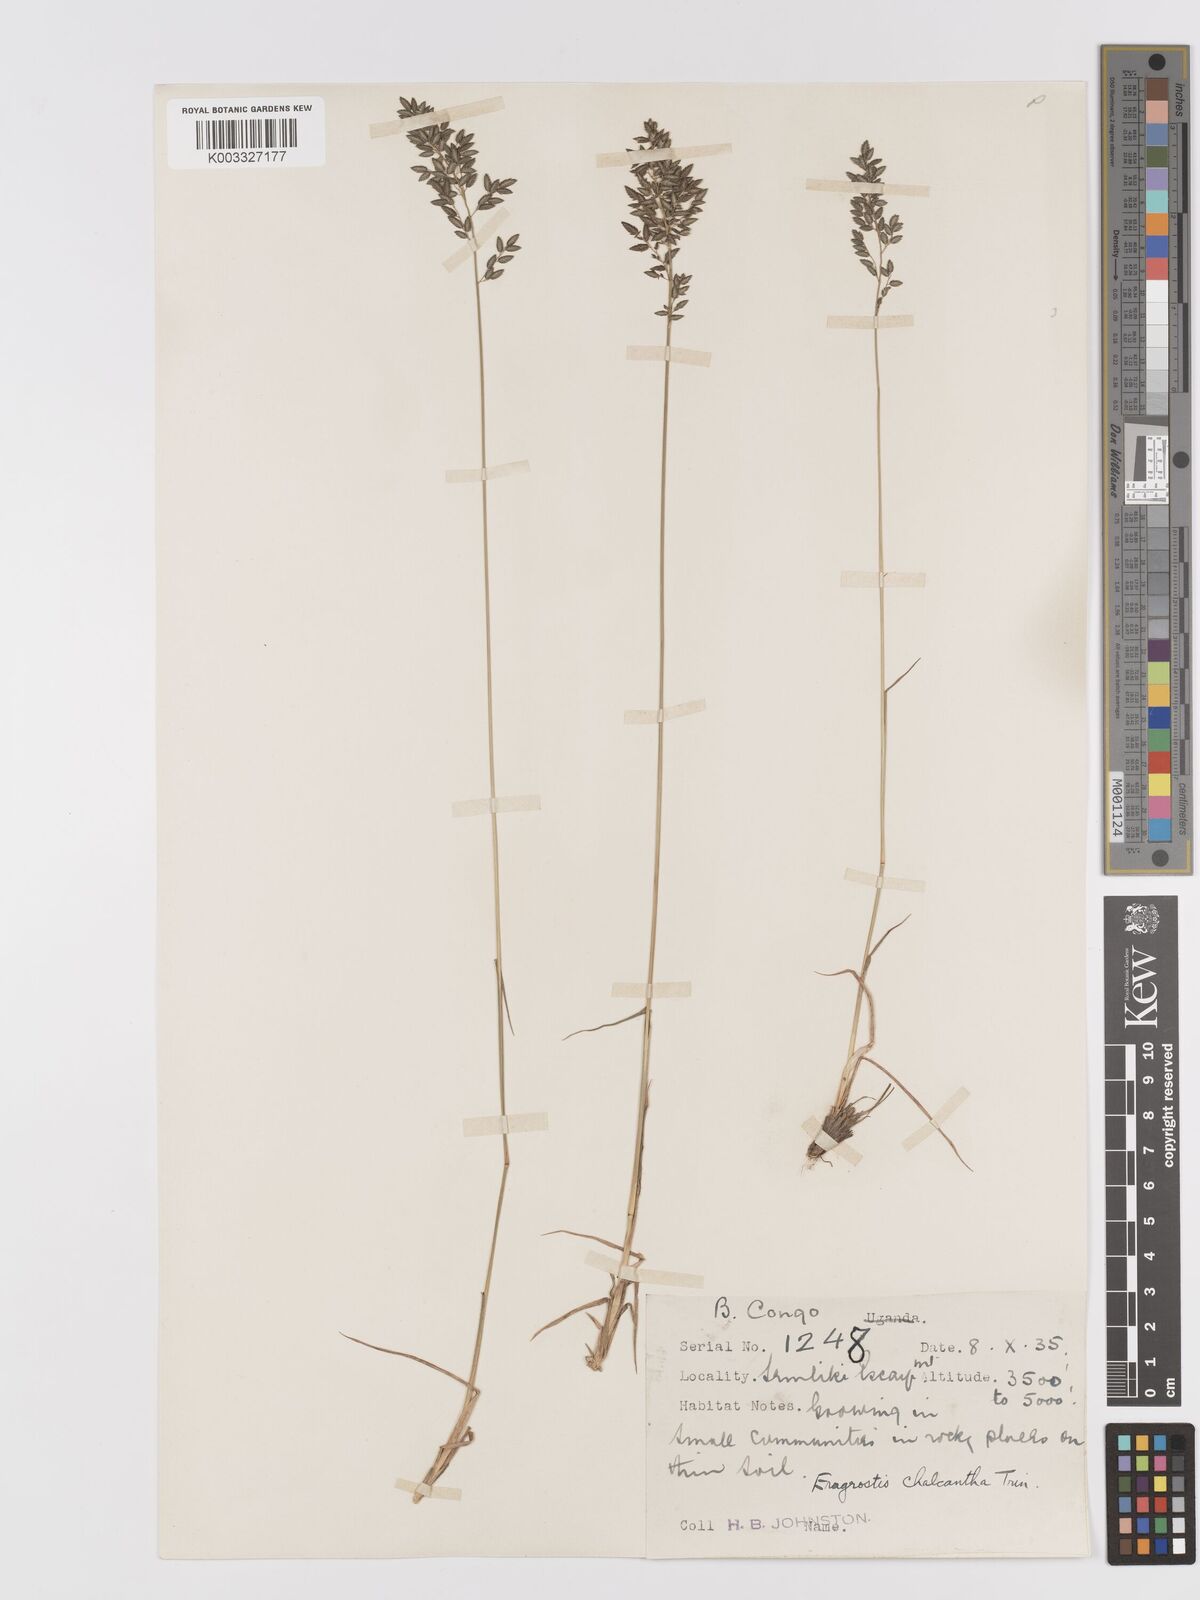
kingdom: Plantae
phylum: Tracheophyta
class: Liliopsida
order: Poales
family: Poaceae
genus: Eragrostis
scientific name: Eragrostis racemosa
